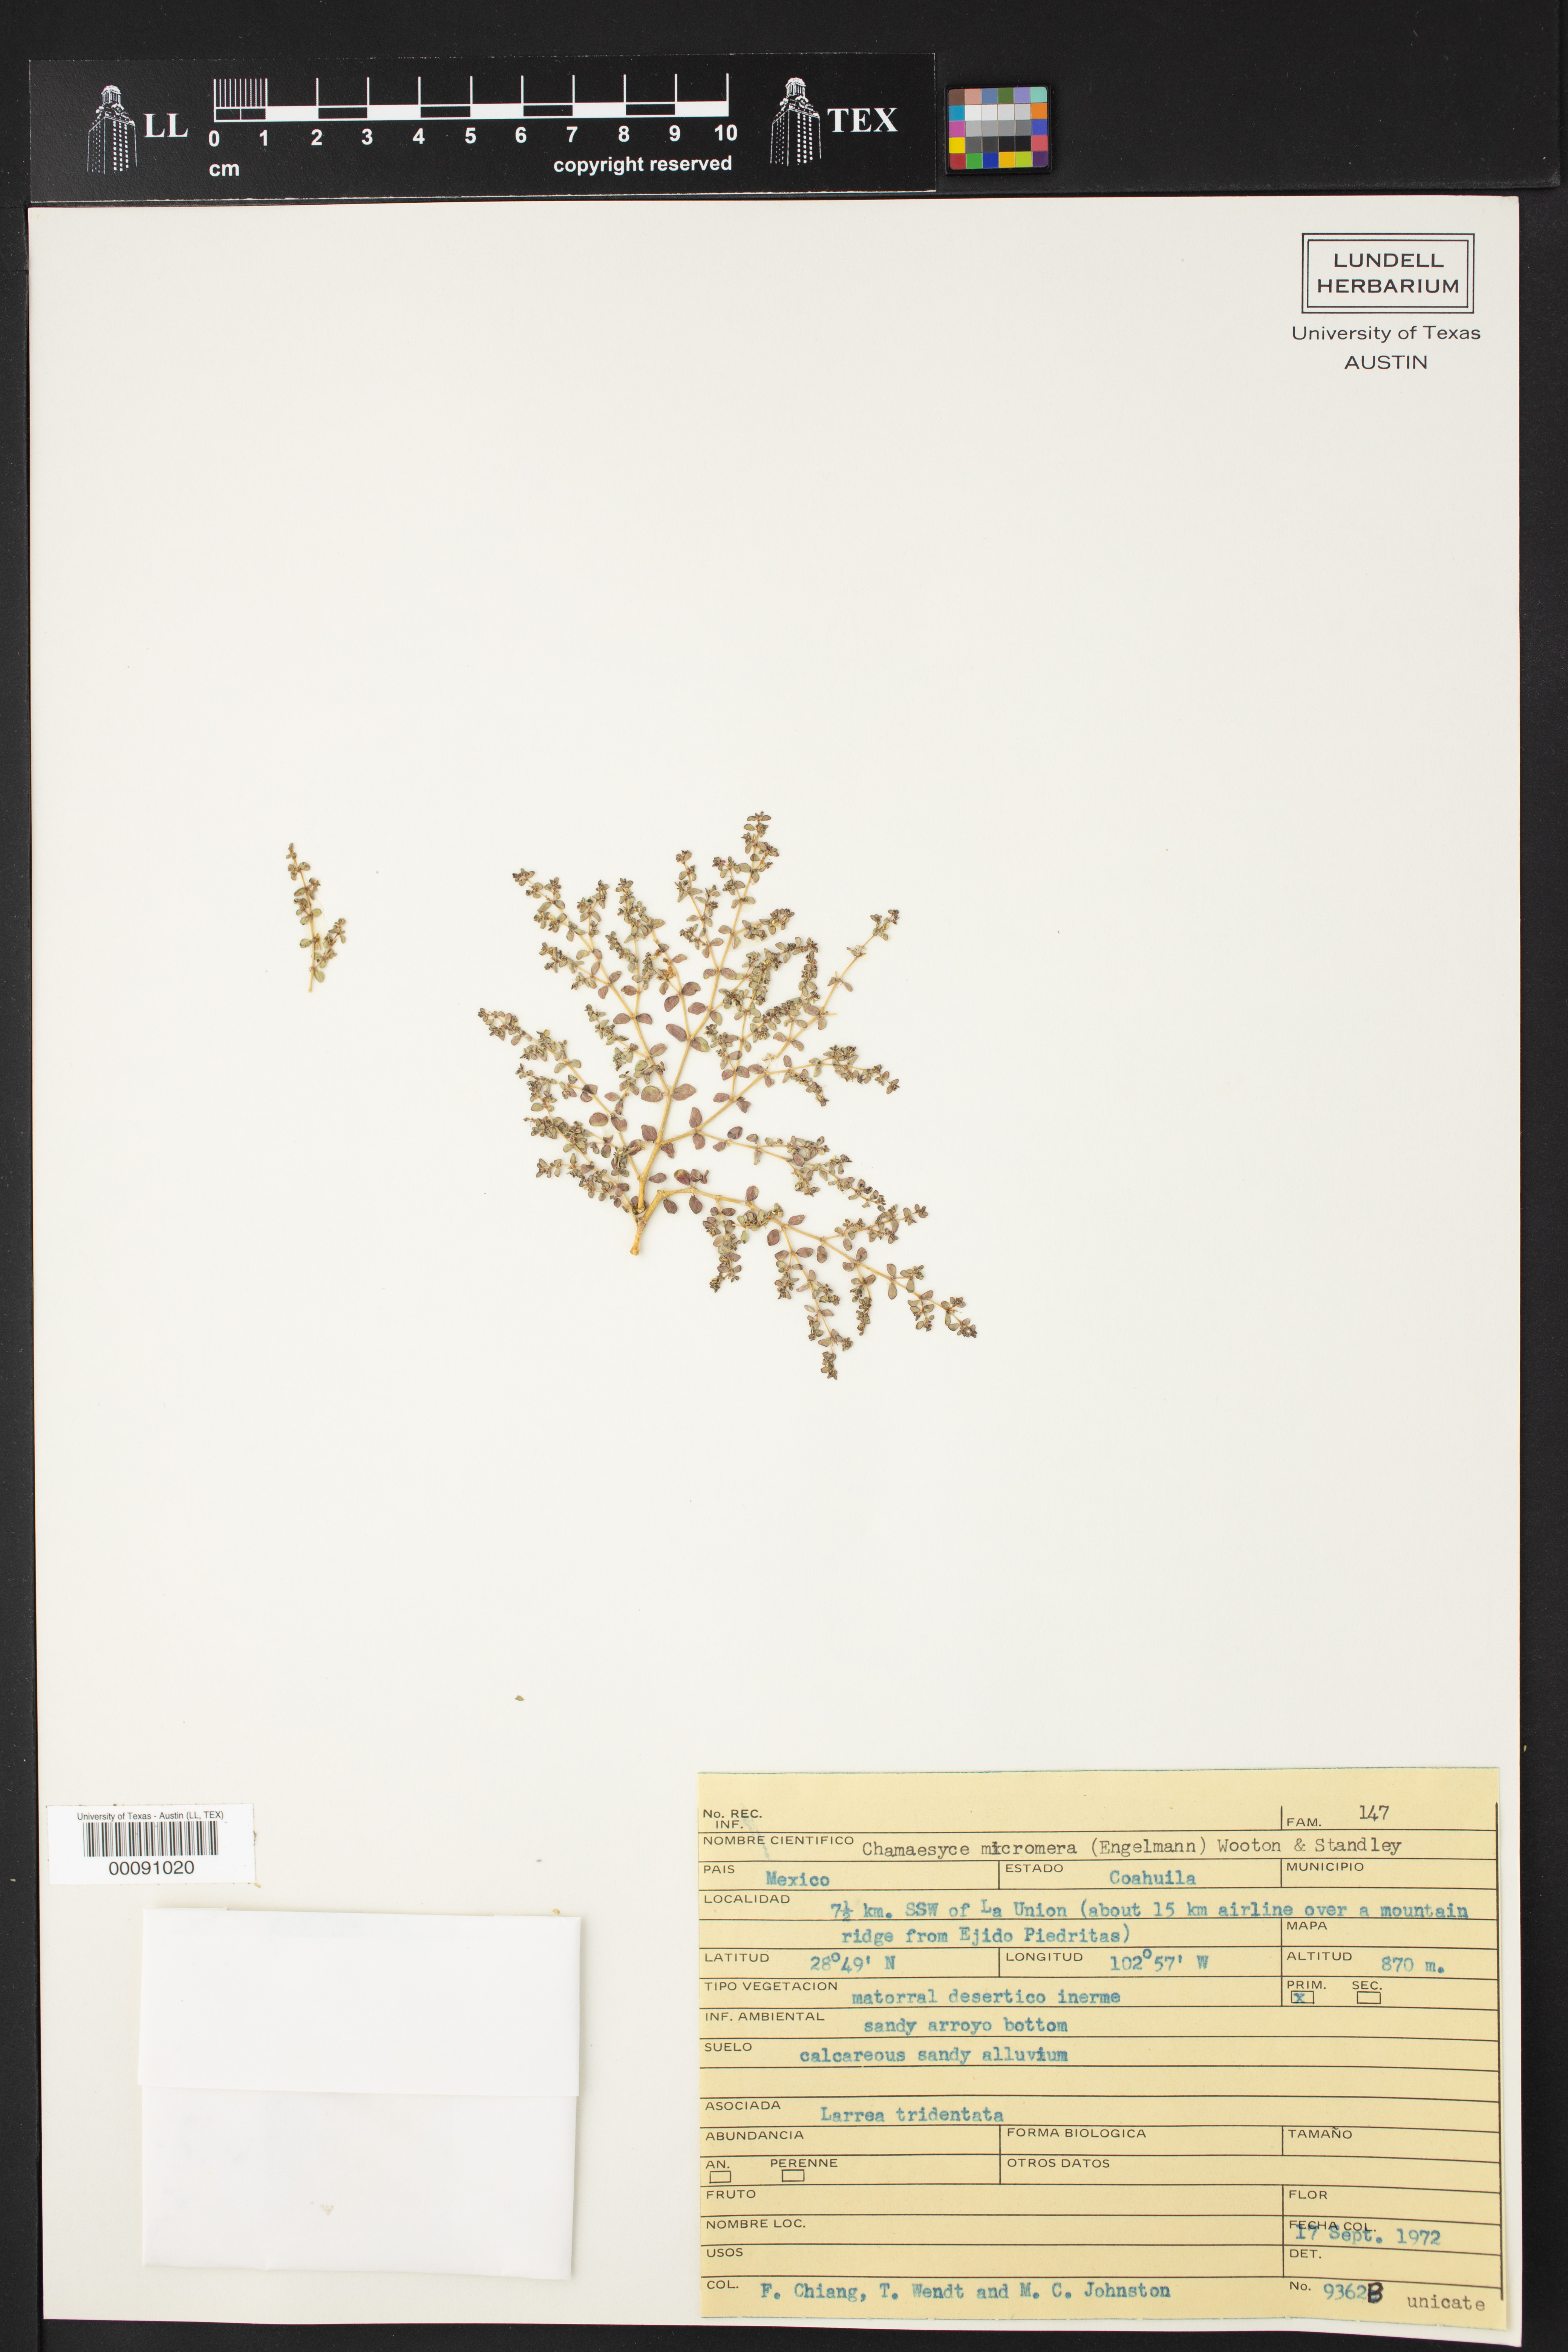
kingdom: Plantae
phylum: Tracheophyta
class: Magnoliopsida
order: Malpighiales
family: Euphorbiaceae
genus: Euphorbia
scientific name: Euphorbia micromera
